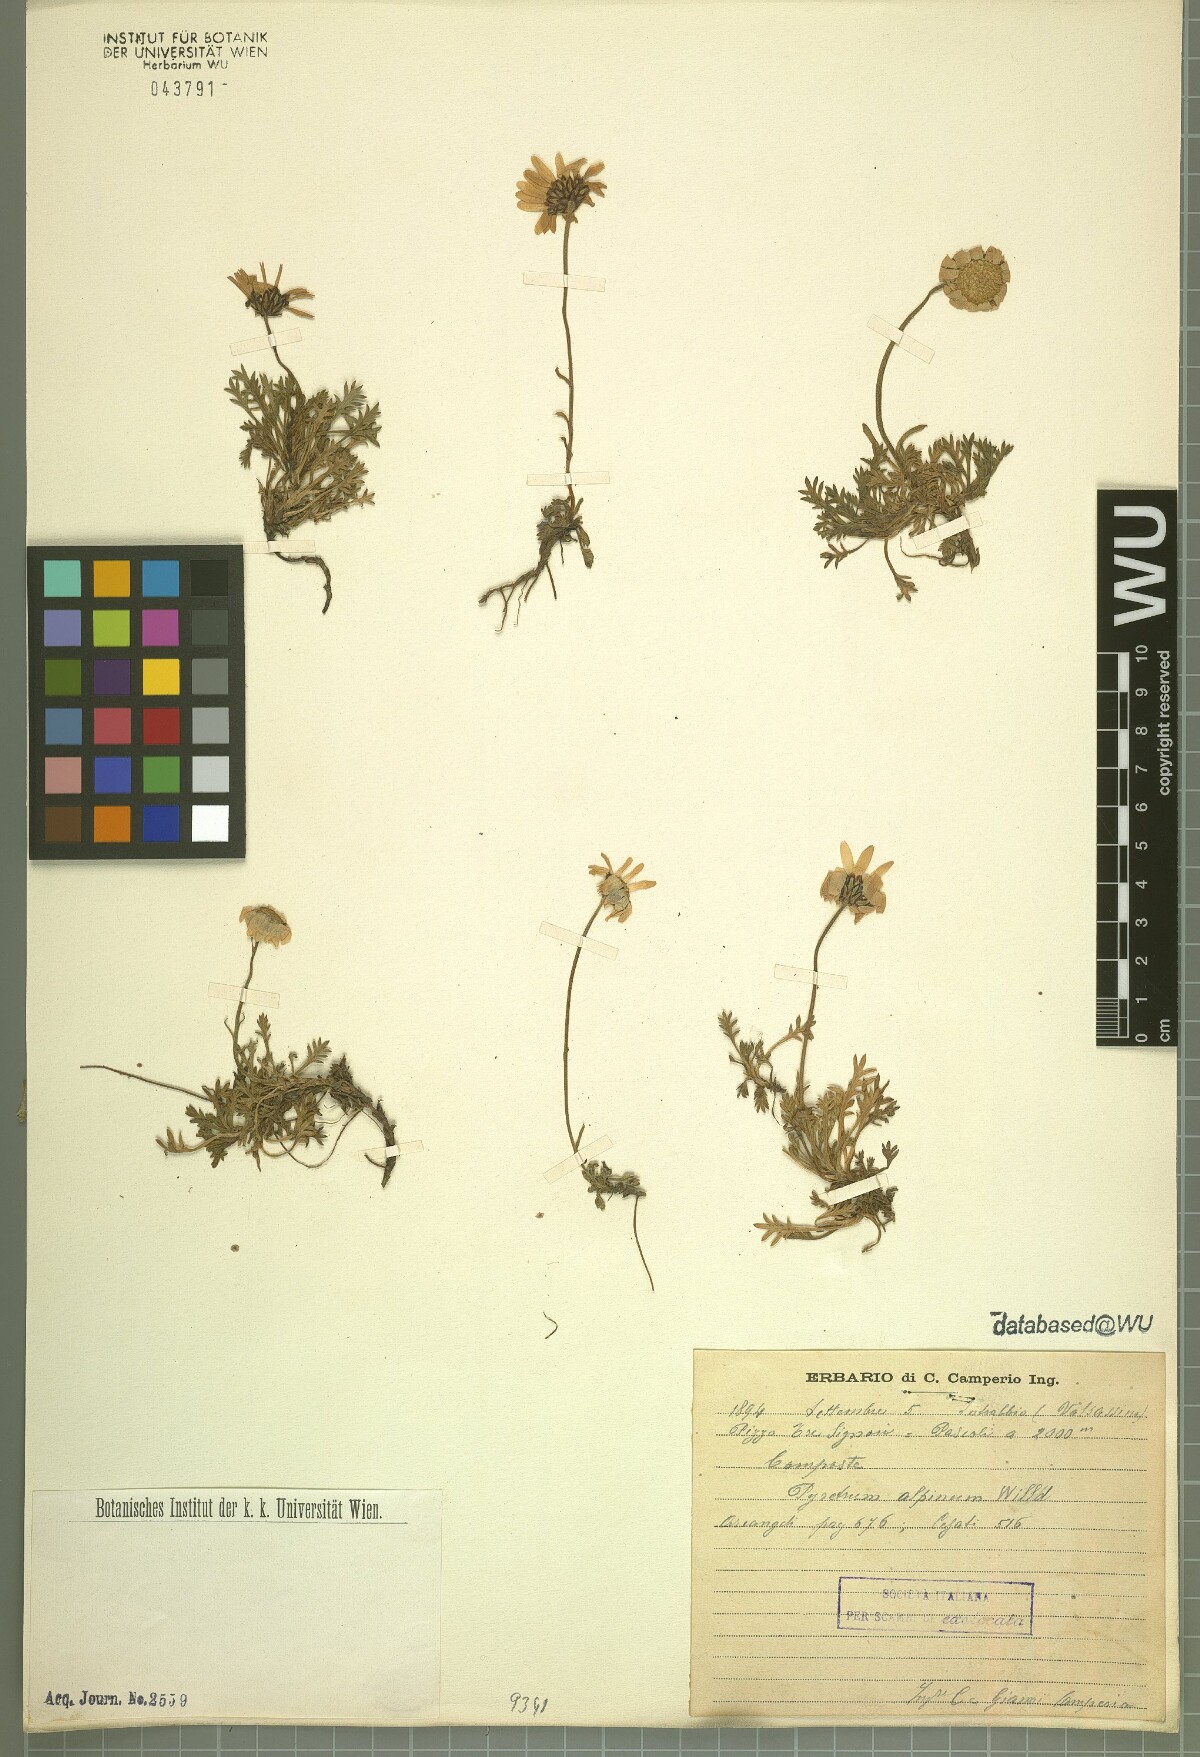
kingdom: Plantae
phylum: Tracheophyta
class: Magnoliopsida
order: Asterales
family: Asteraceae
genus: Leucanthemopsis
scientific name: Leucanthemopsis alpina
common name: Alpine moon daisy
